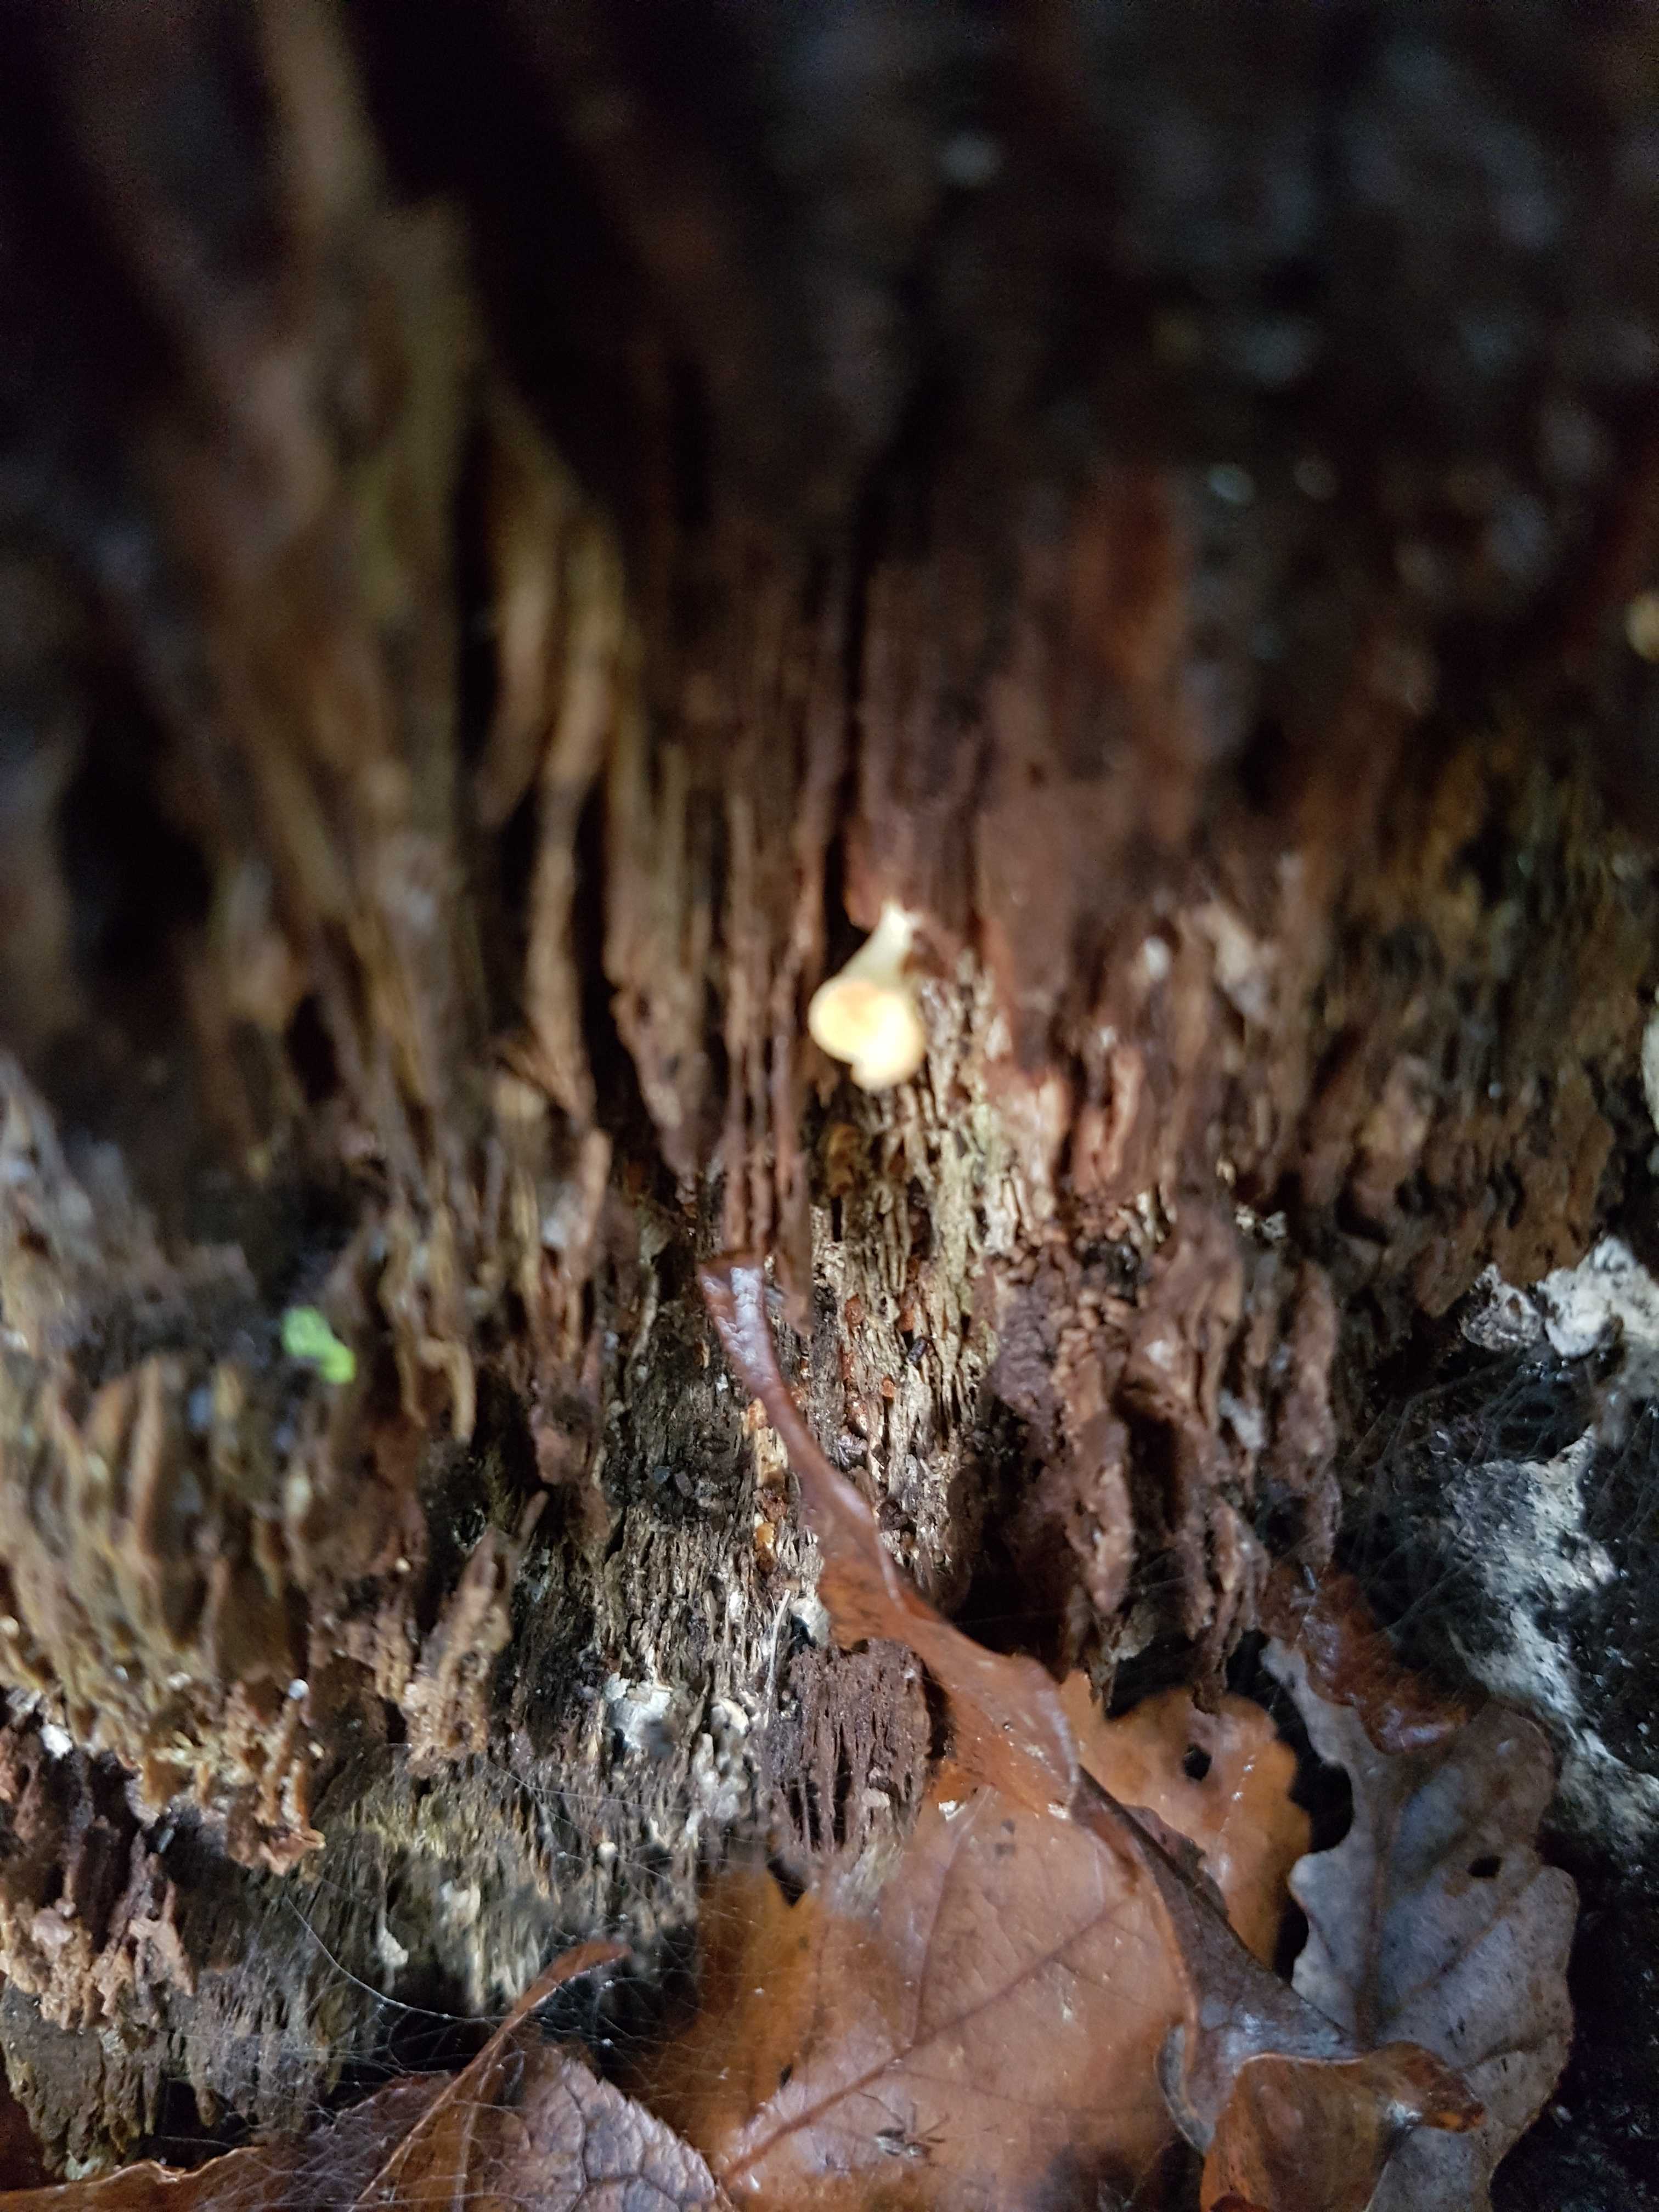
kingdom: Fungi
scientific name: Fungi
